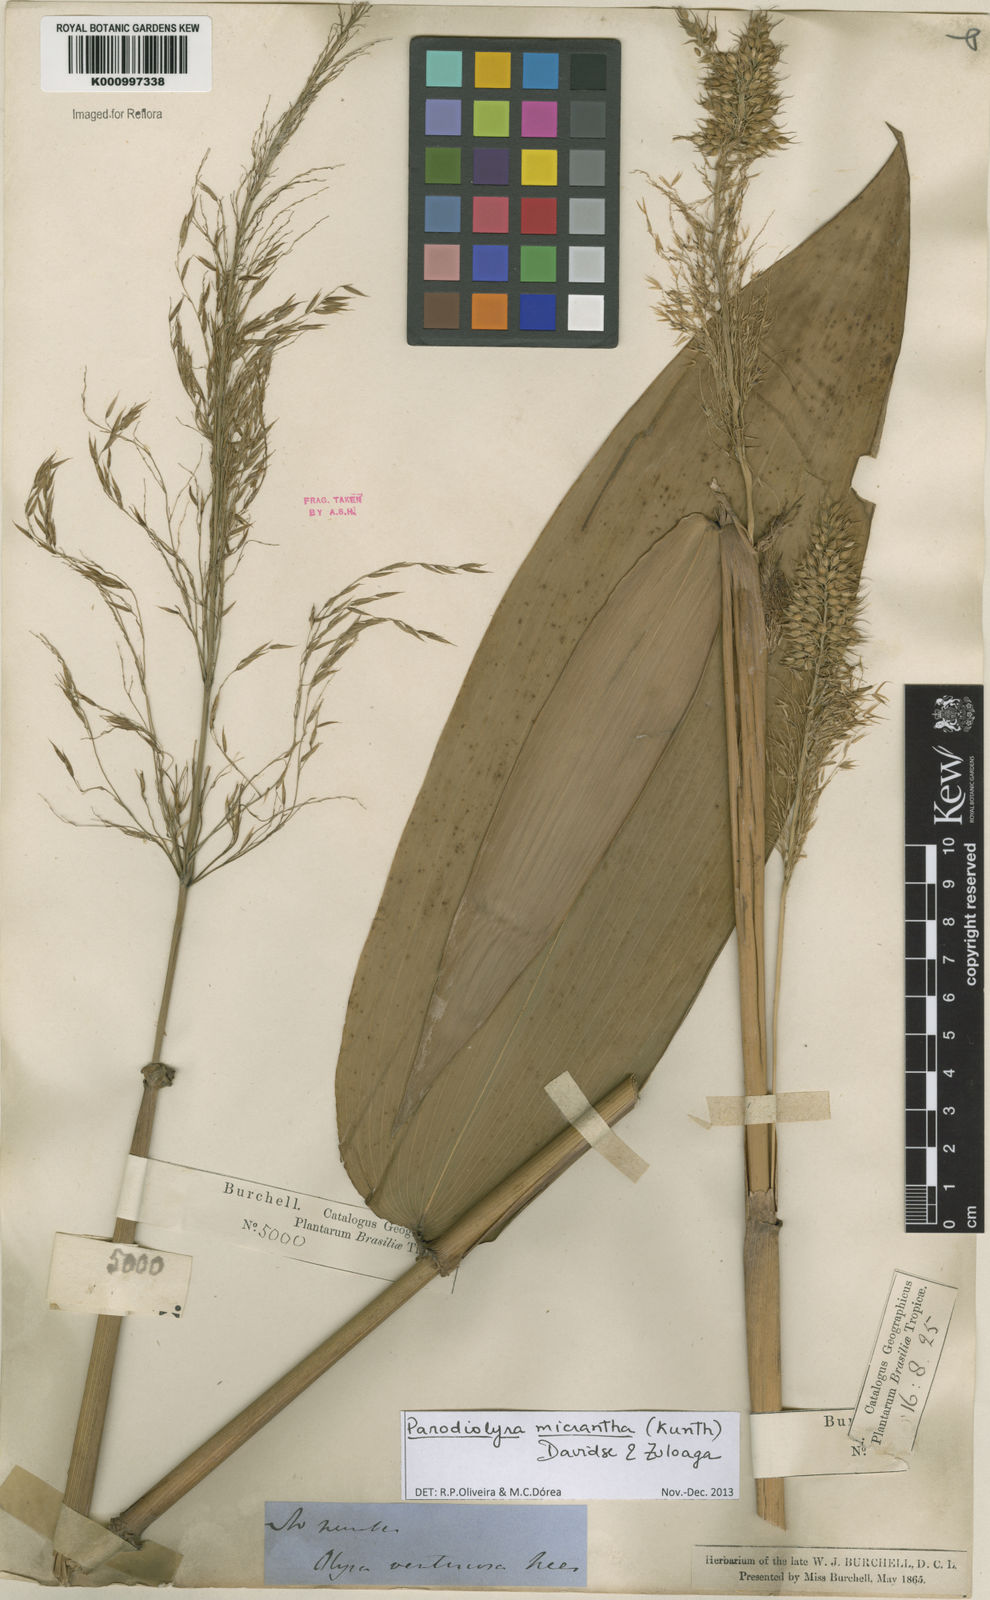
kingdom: Plantae
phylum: Tracheophyta
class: Liliopsida
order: Poales
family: Poaceae
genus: Taquara
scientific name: Taquara micrantha
